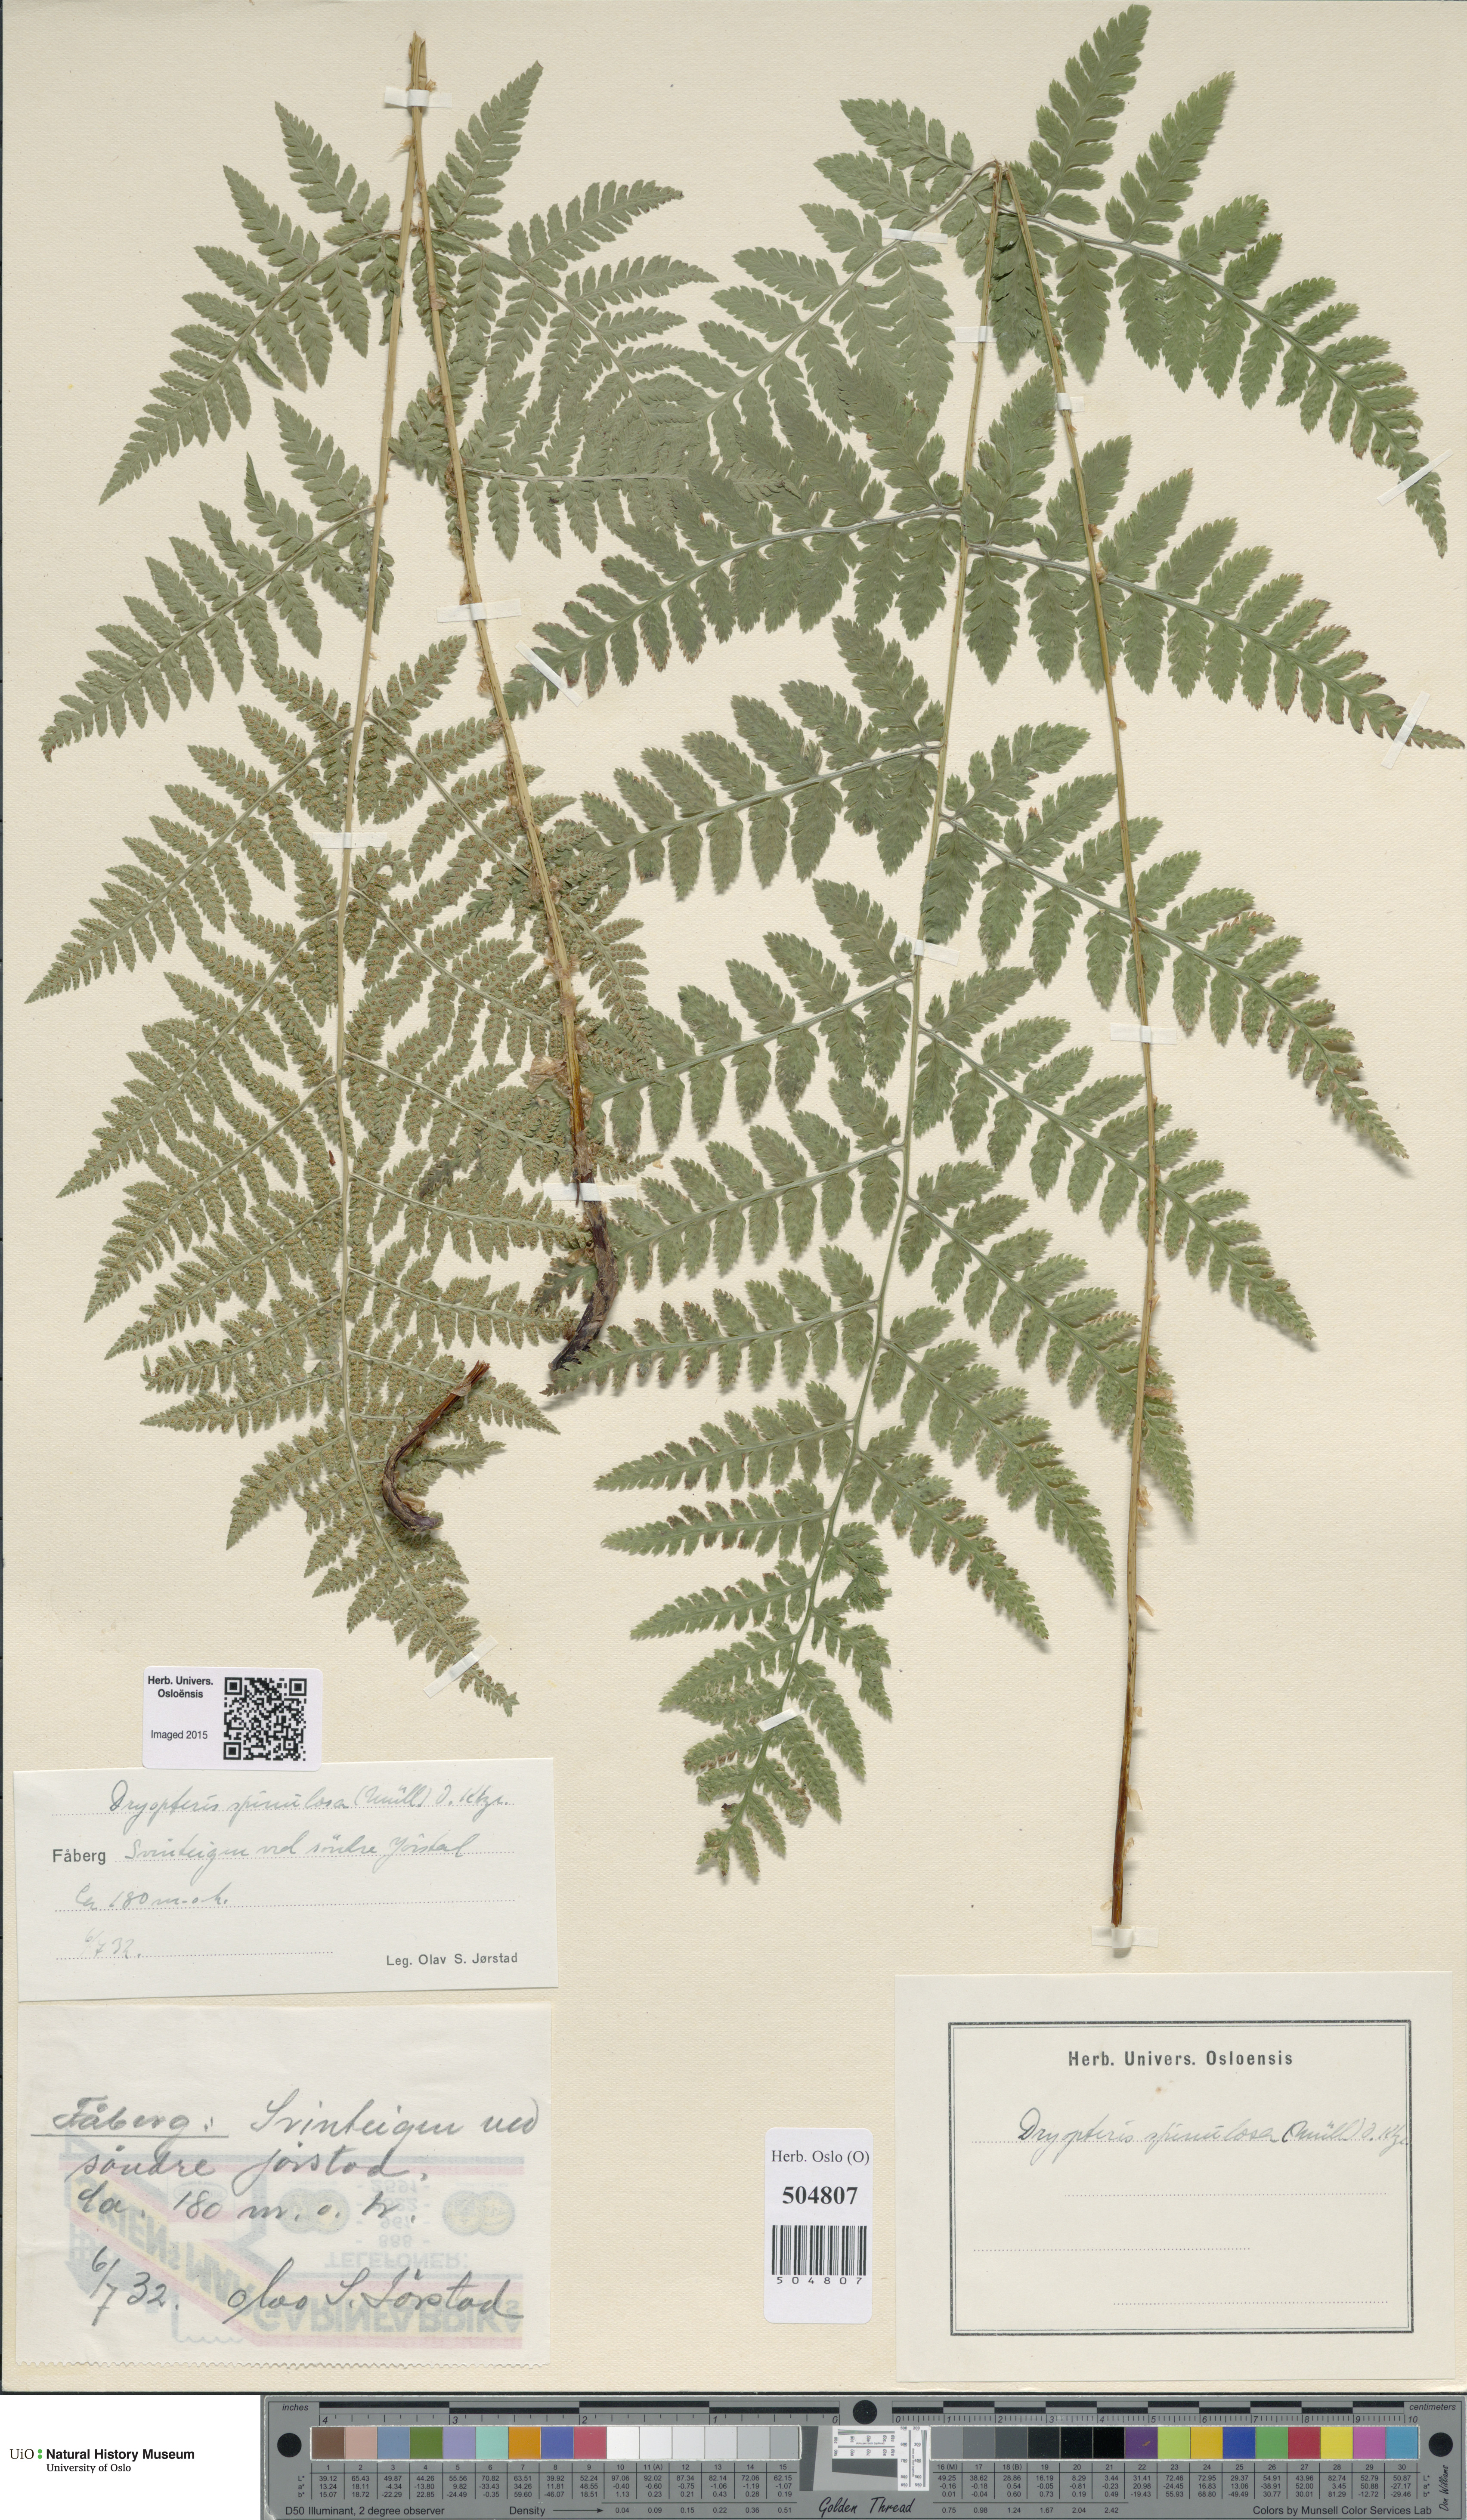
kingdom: Plantae
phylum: Tracheophyta
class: Polypodiopsida
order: Polypodiales
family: Dryopteridaceae
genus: Dryopteris
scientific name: Dryopteris carthusiana
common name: Narrow buckler-fern
